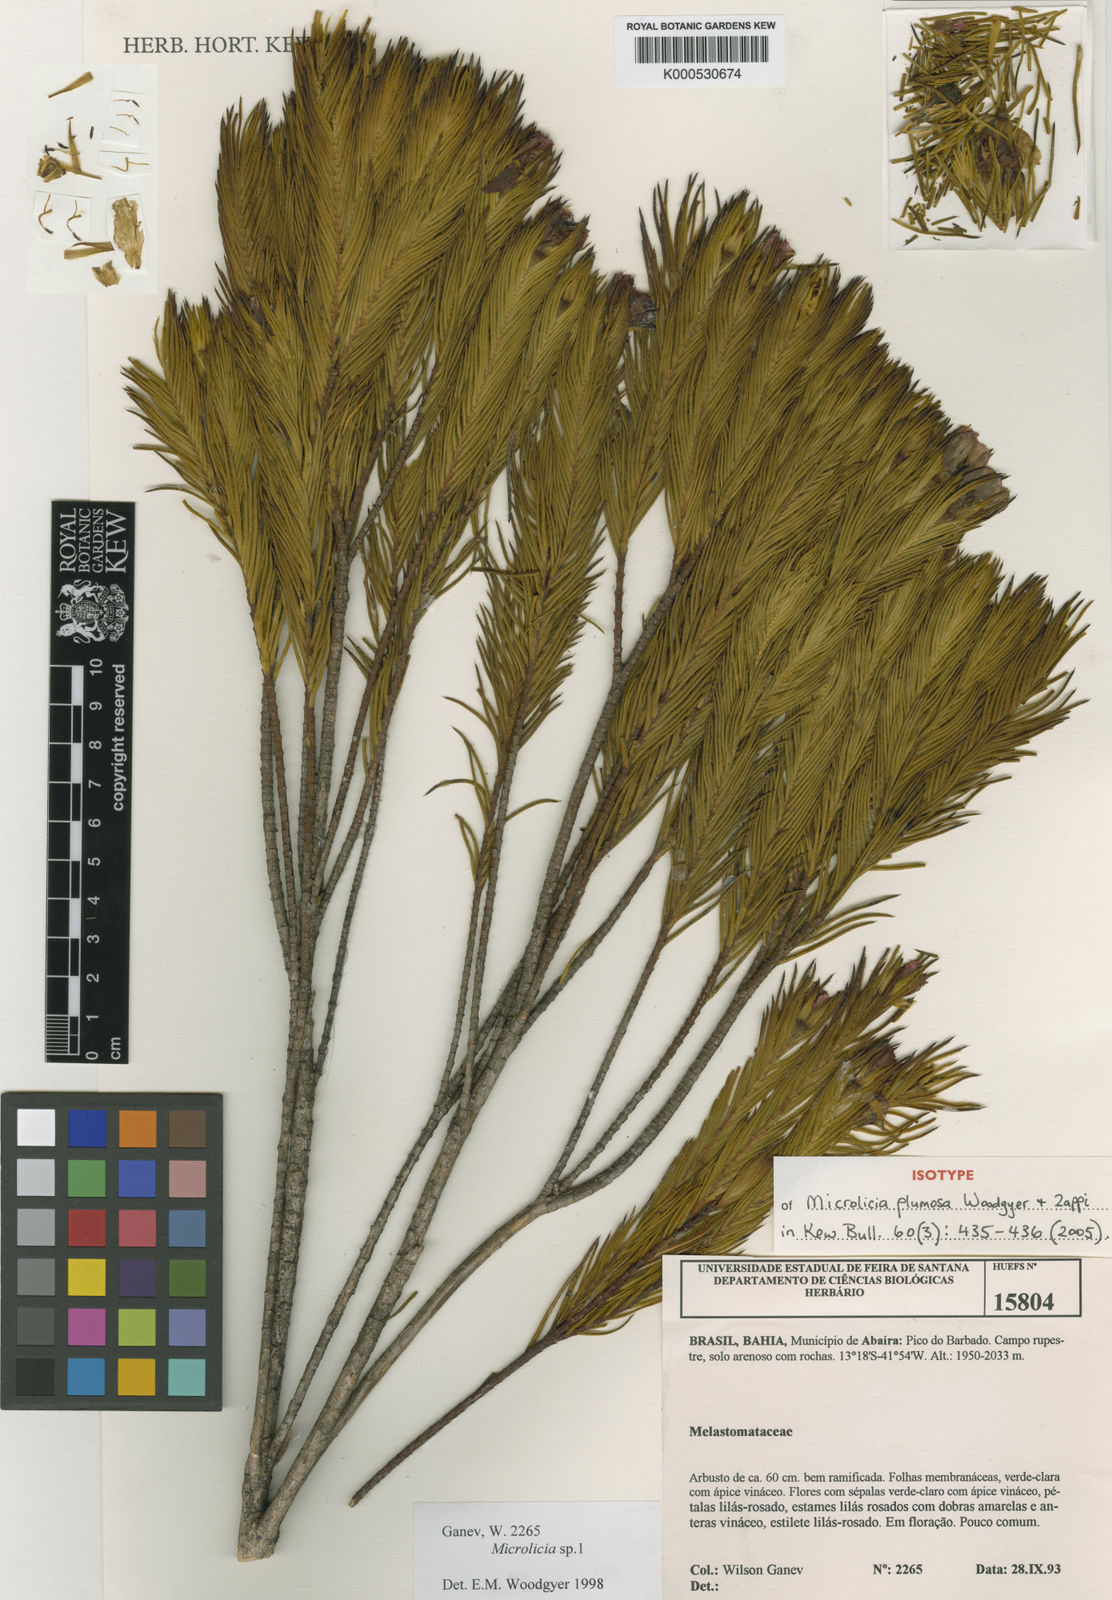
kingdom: Plantae
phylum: Tracheophyta
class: Magnoliopsida
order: Myrtales
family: Melastomataceae
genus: Microlicia
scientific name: Microlicia plumosa
